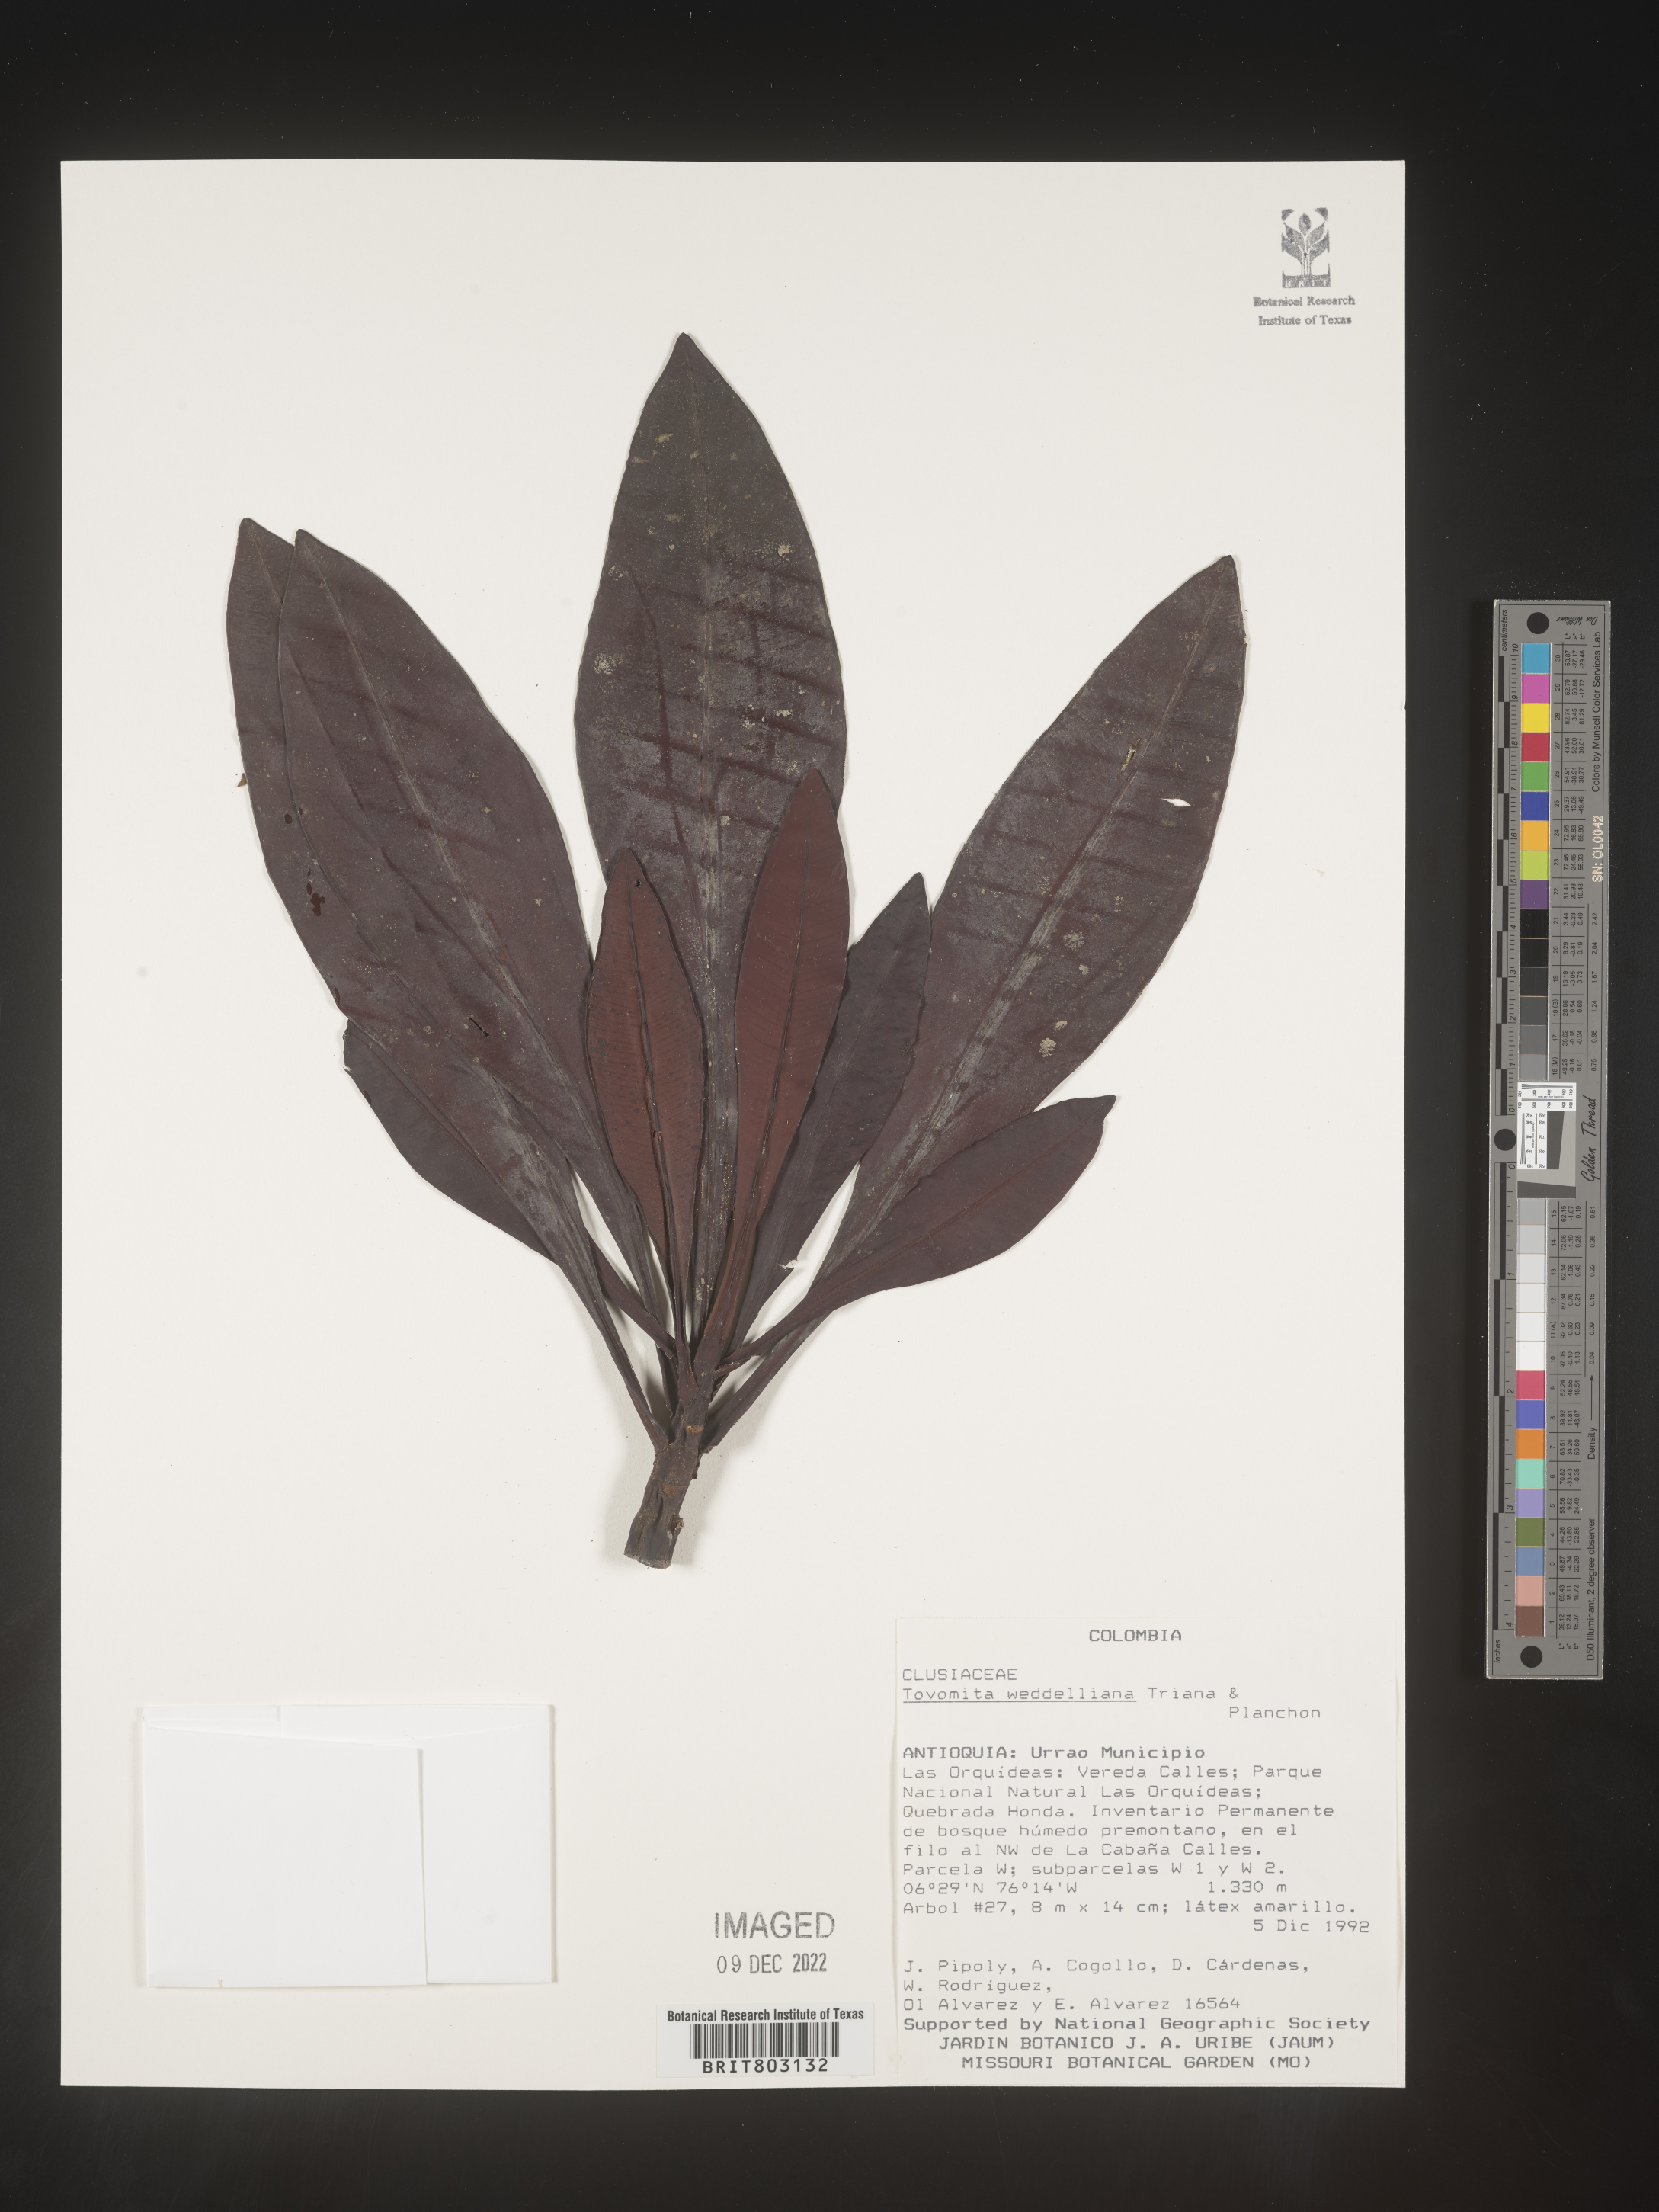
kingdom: Plantae
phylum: Tracheophyta
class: Magnoliopsida
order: Malpighiales
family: Clusiaceae
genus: Arawakia
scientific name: Arawakia weddelliana
